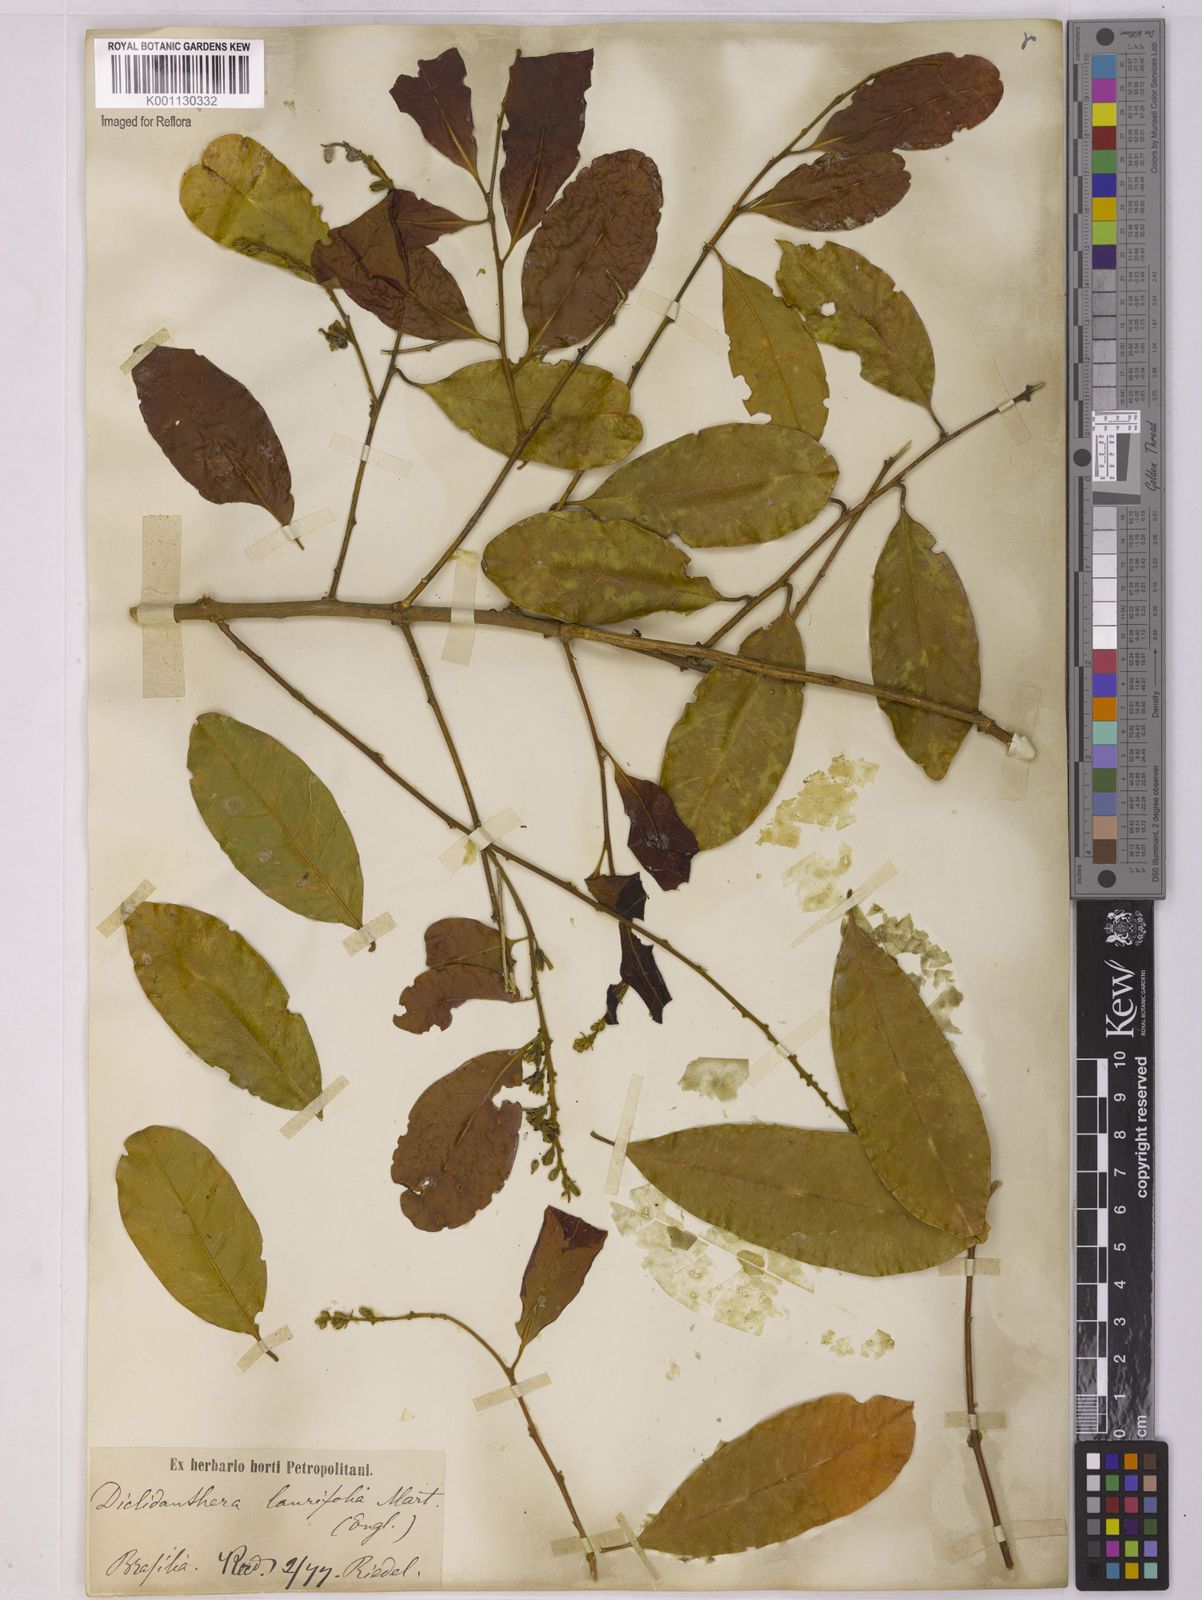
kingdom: Plantae
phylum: Tracheophyta
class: Magnoliopsida
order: Fabales
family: Polygalaceae
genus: Diclidanthera
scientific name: Diclidanthera laurifolia
